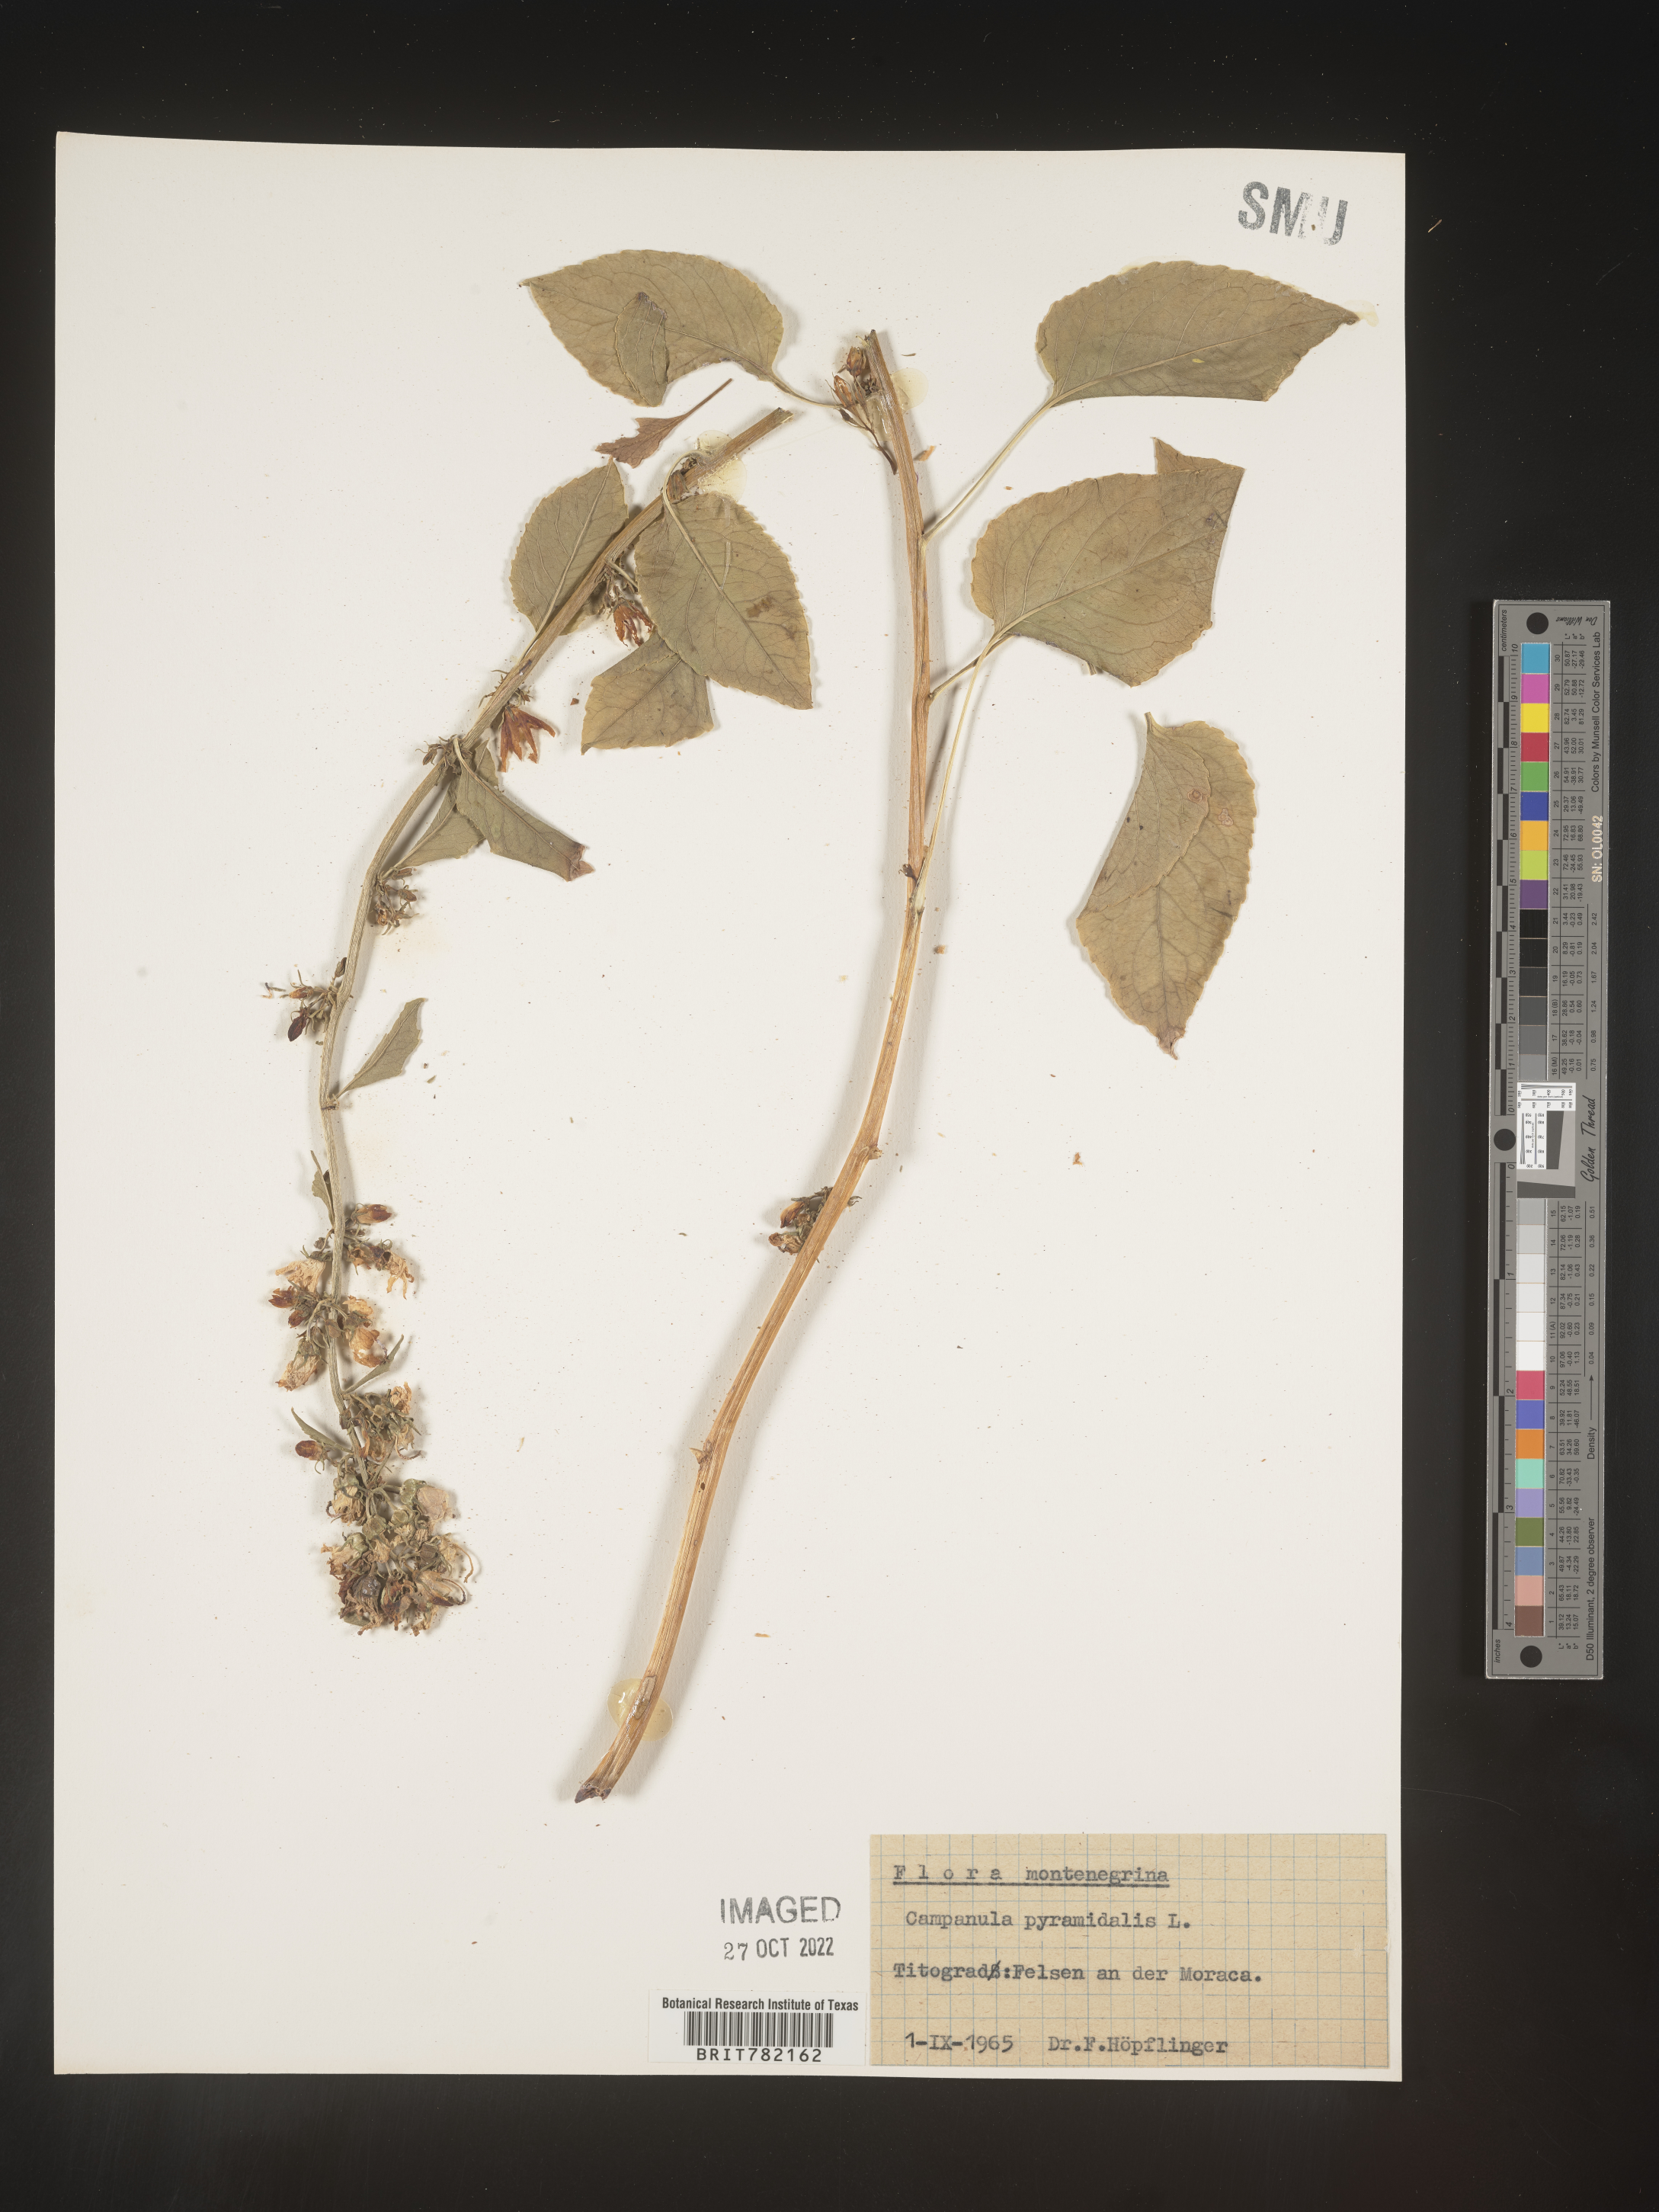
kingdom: Plantae
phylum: Tracheophyta
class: Magnoliopsida
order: Asterales
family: Campanulaceae
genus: Campanula
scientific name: Campanula
